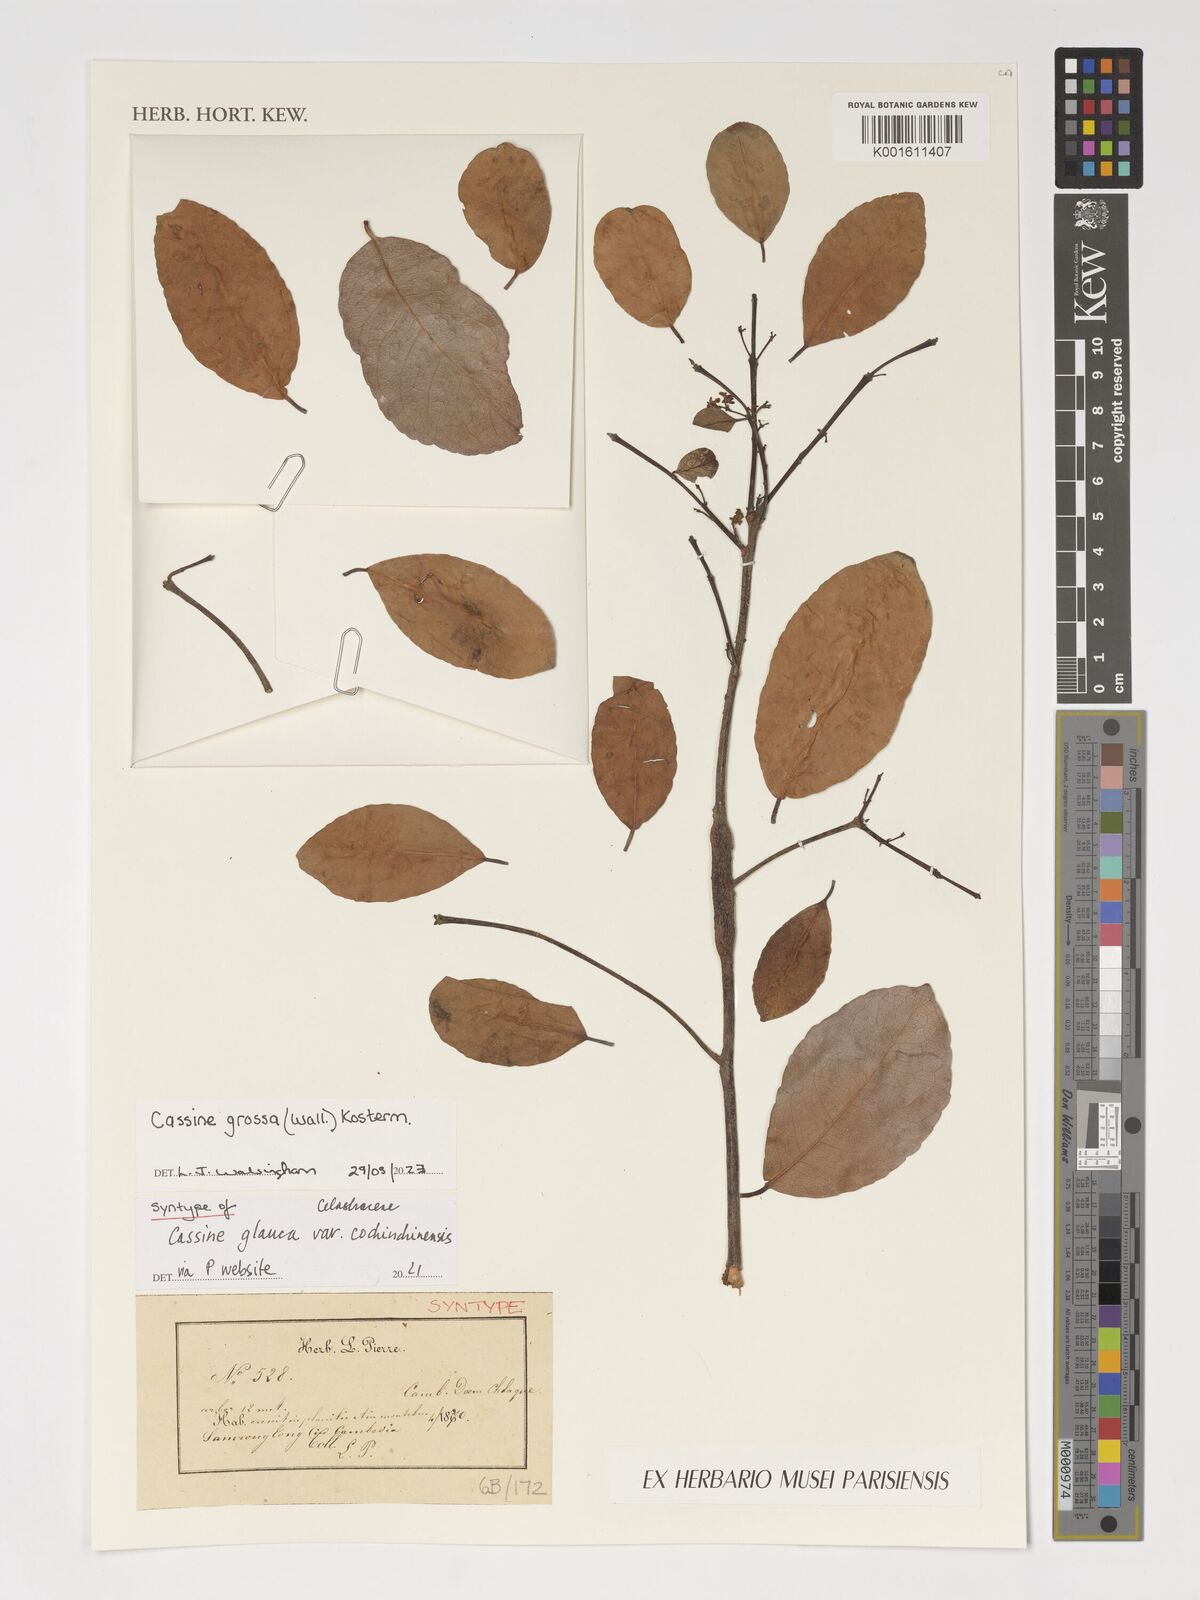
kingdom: Plantae
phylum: Tracheophyta
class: Magnoliopsida
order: Celastrales
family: Celastraceae
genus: Elaeodendron
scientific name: Elaeodendron glaucum
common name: Ceylon-tea
